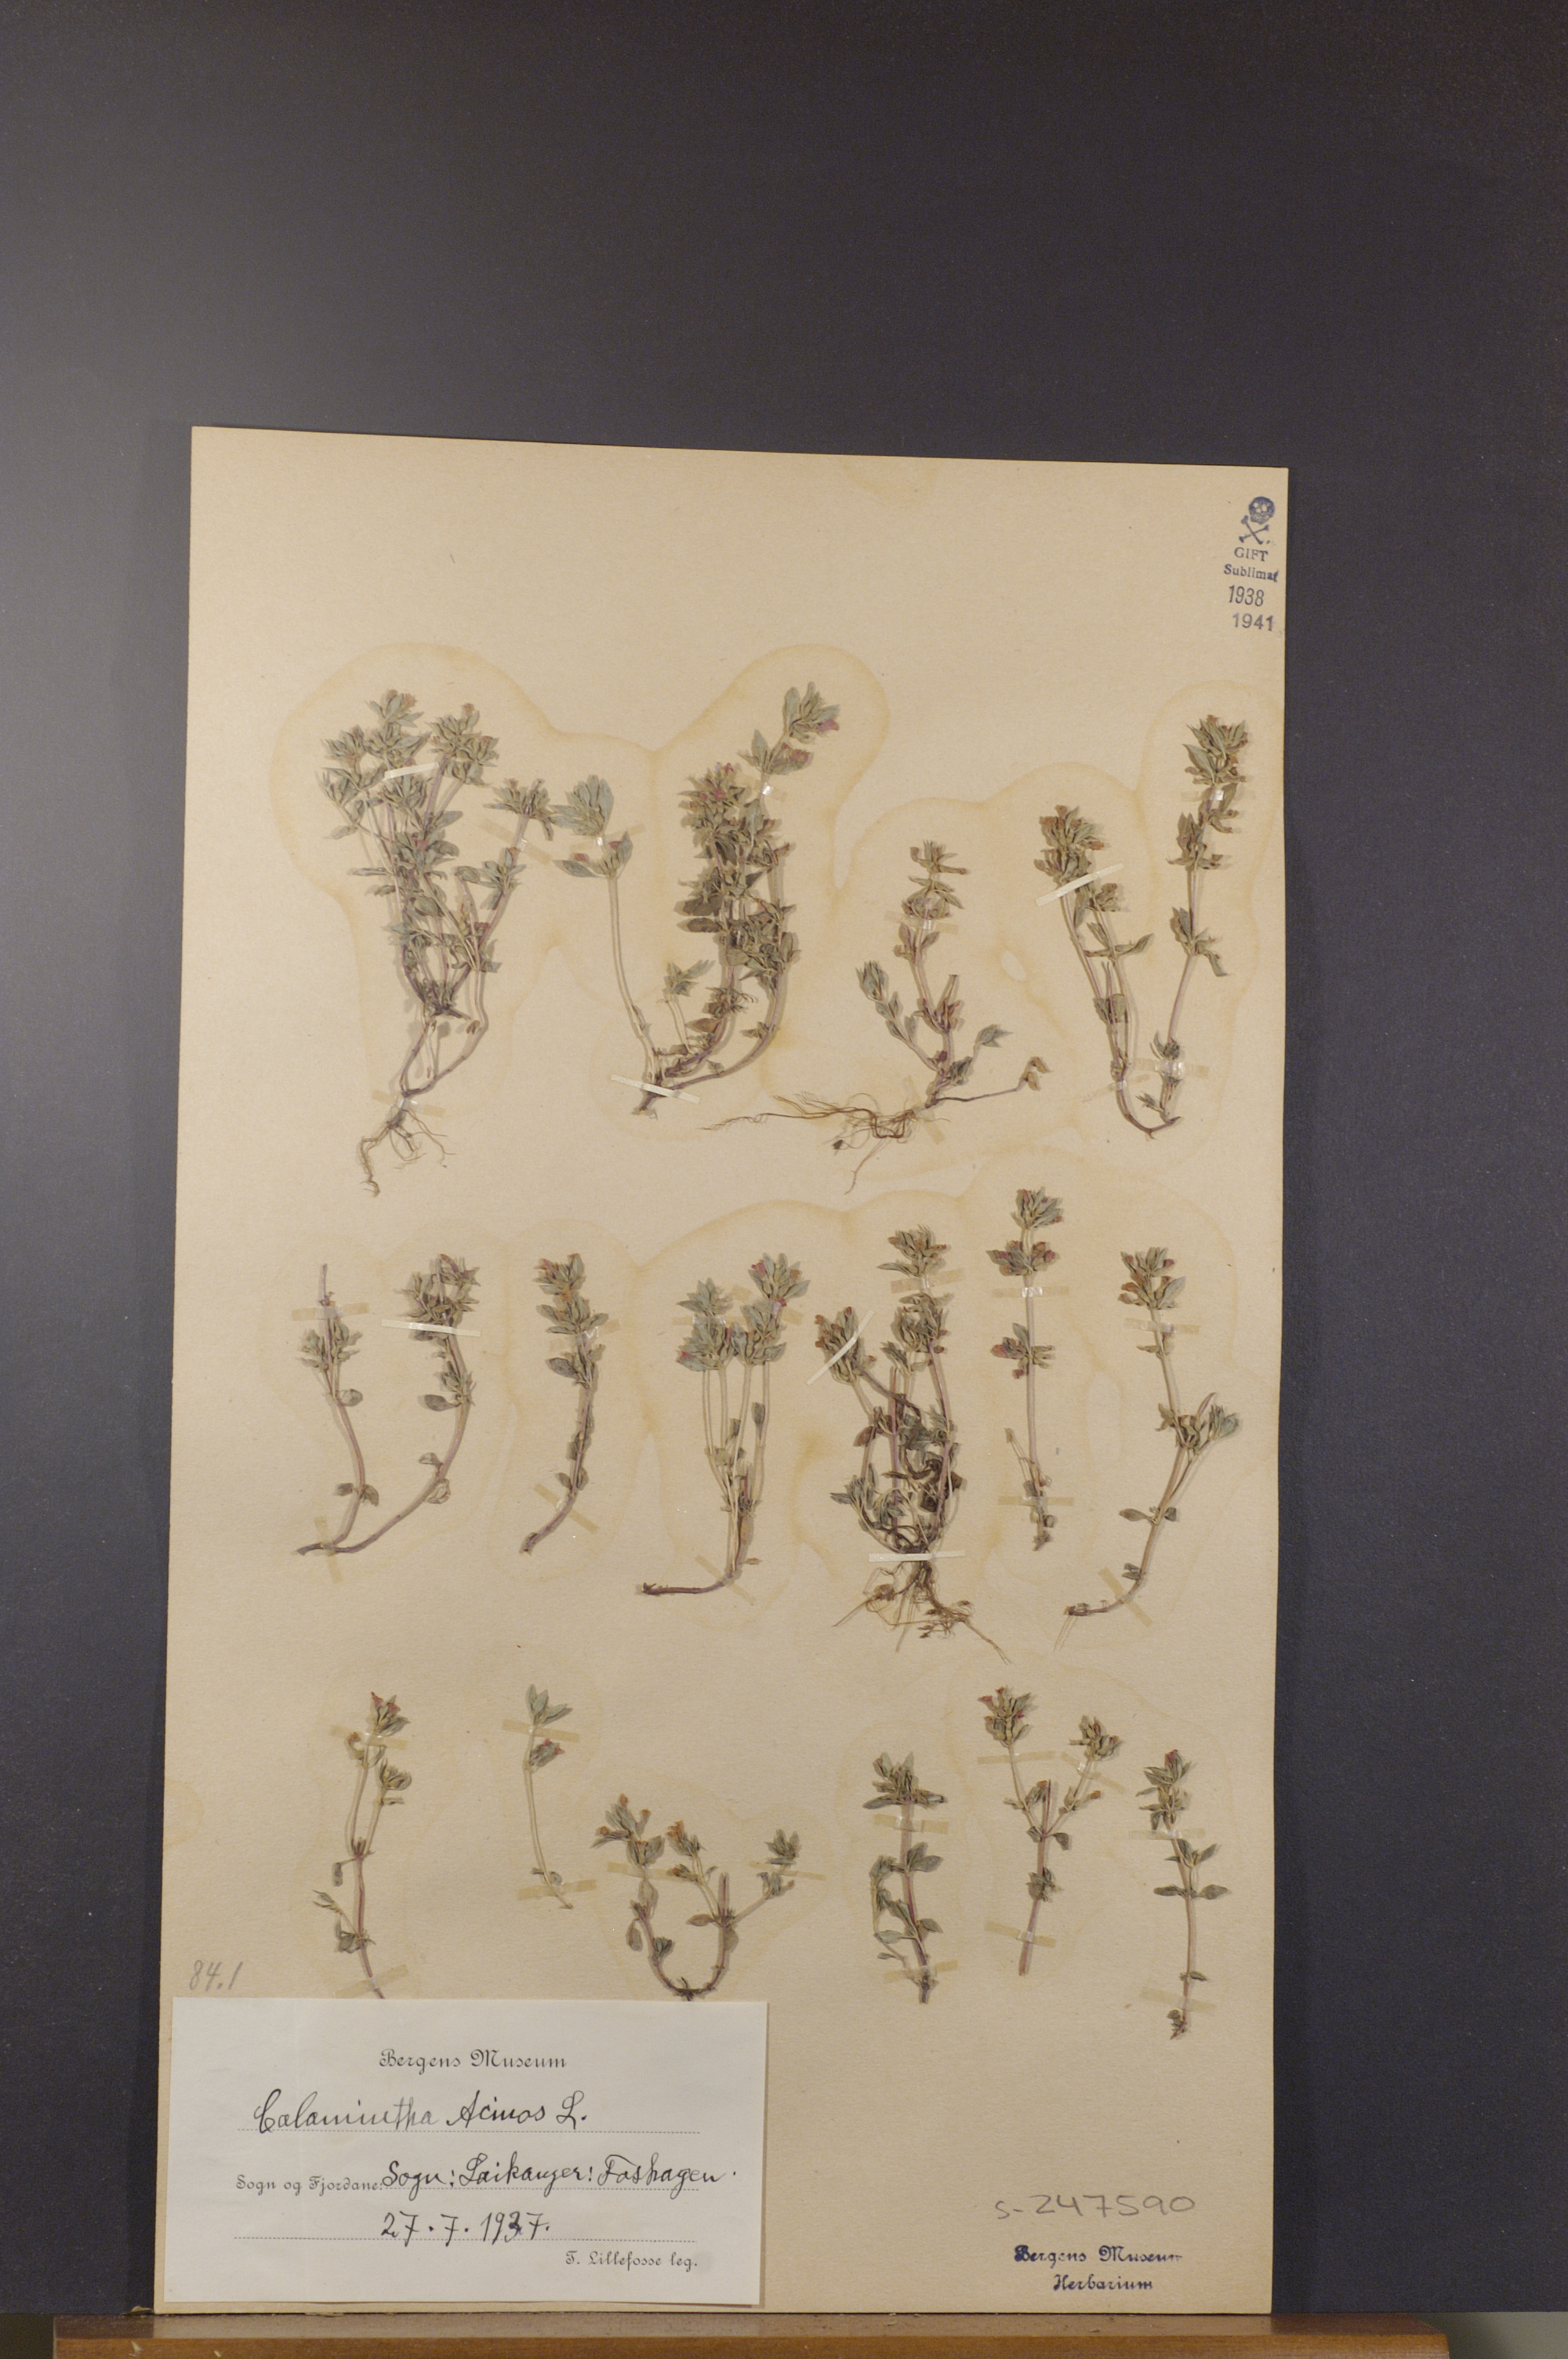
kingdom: Plantae
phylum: Tracheophyta
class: Magnoliopsida
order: Lamiales
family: Lamiaceae
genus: Clinopodium
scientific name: Clinopodium acinos
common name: Basil thyme
